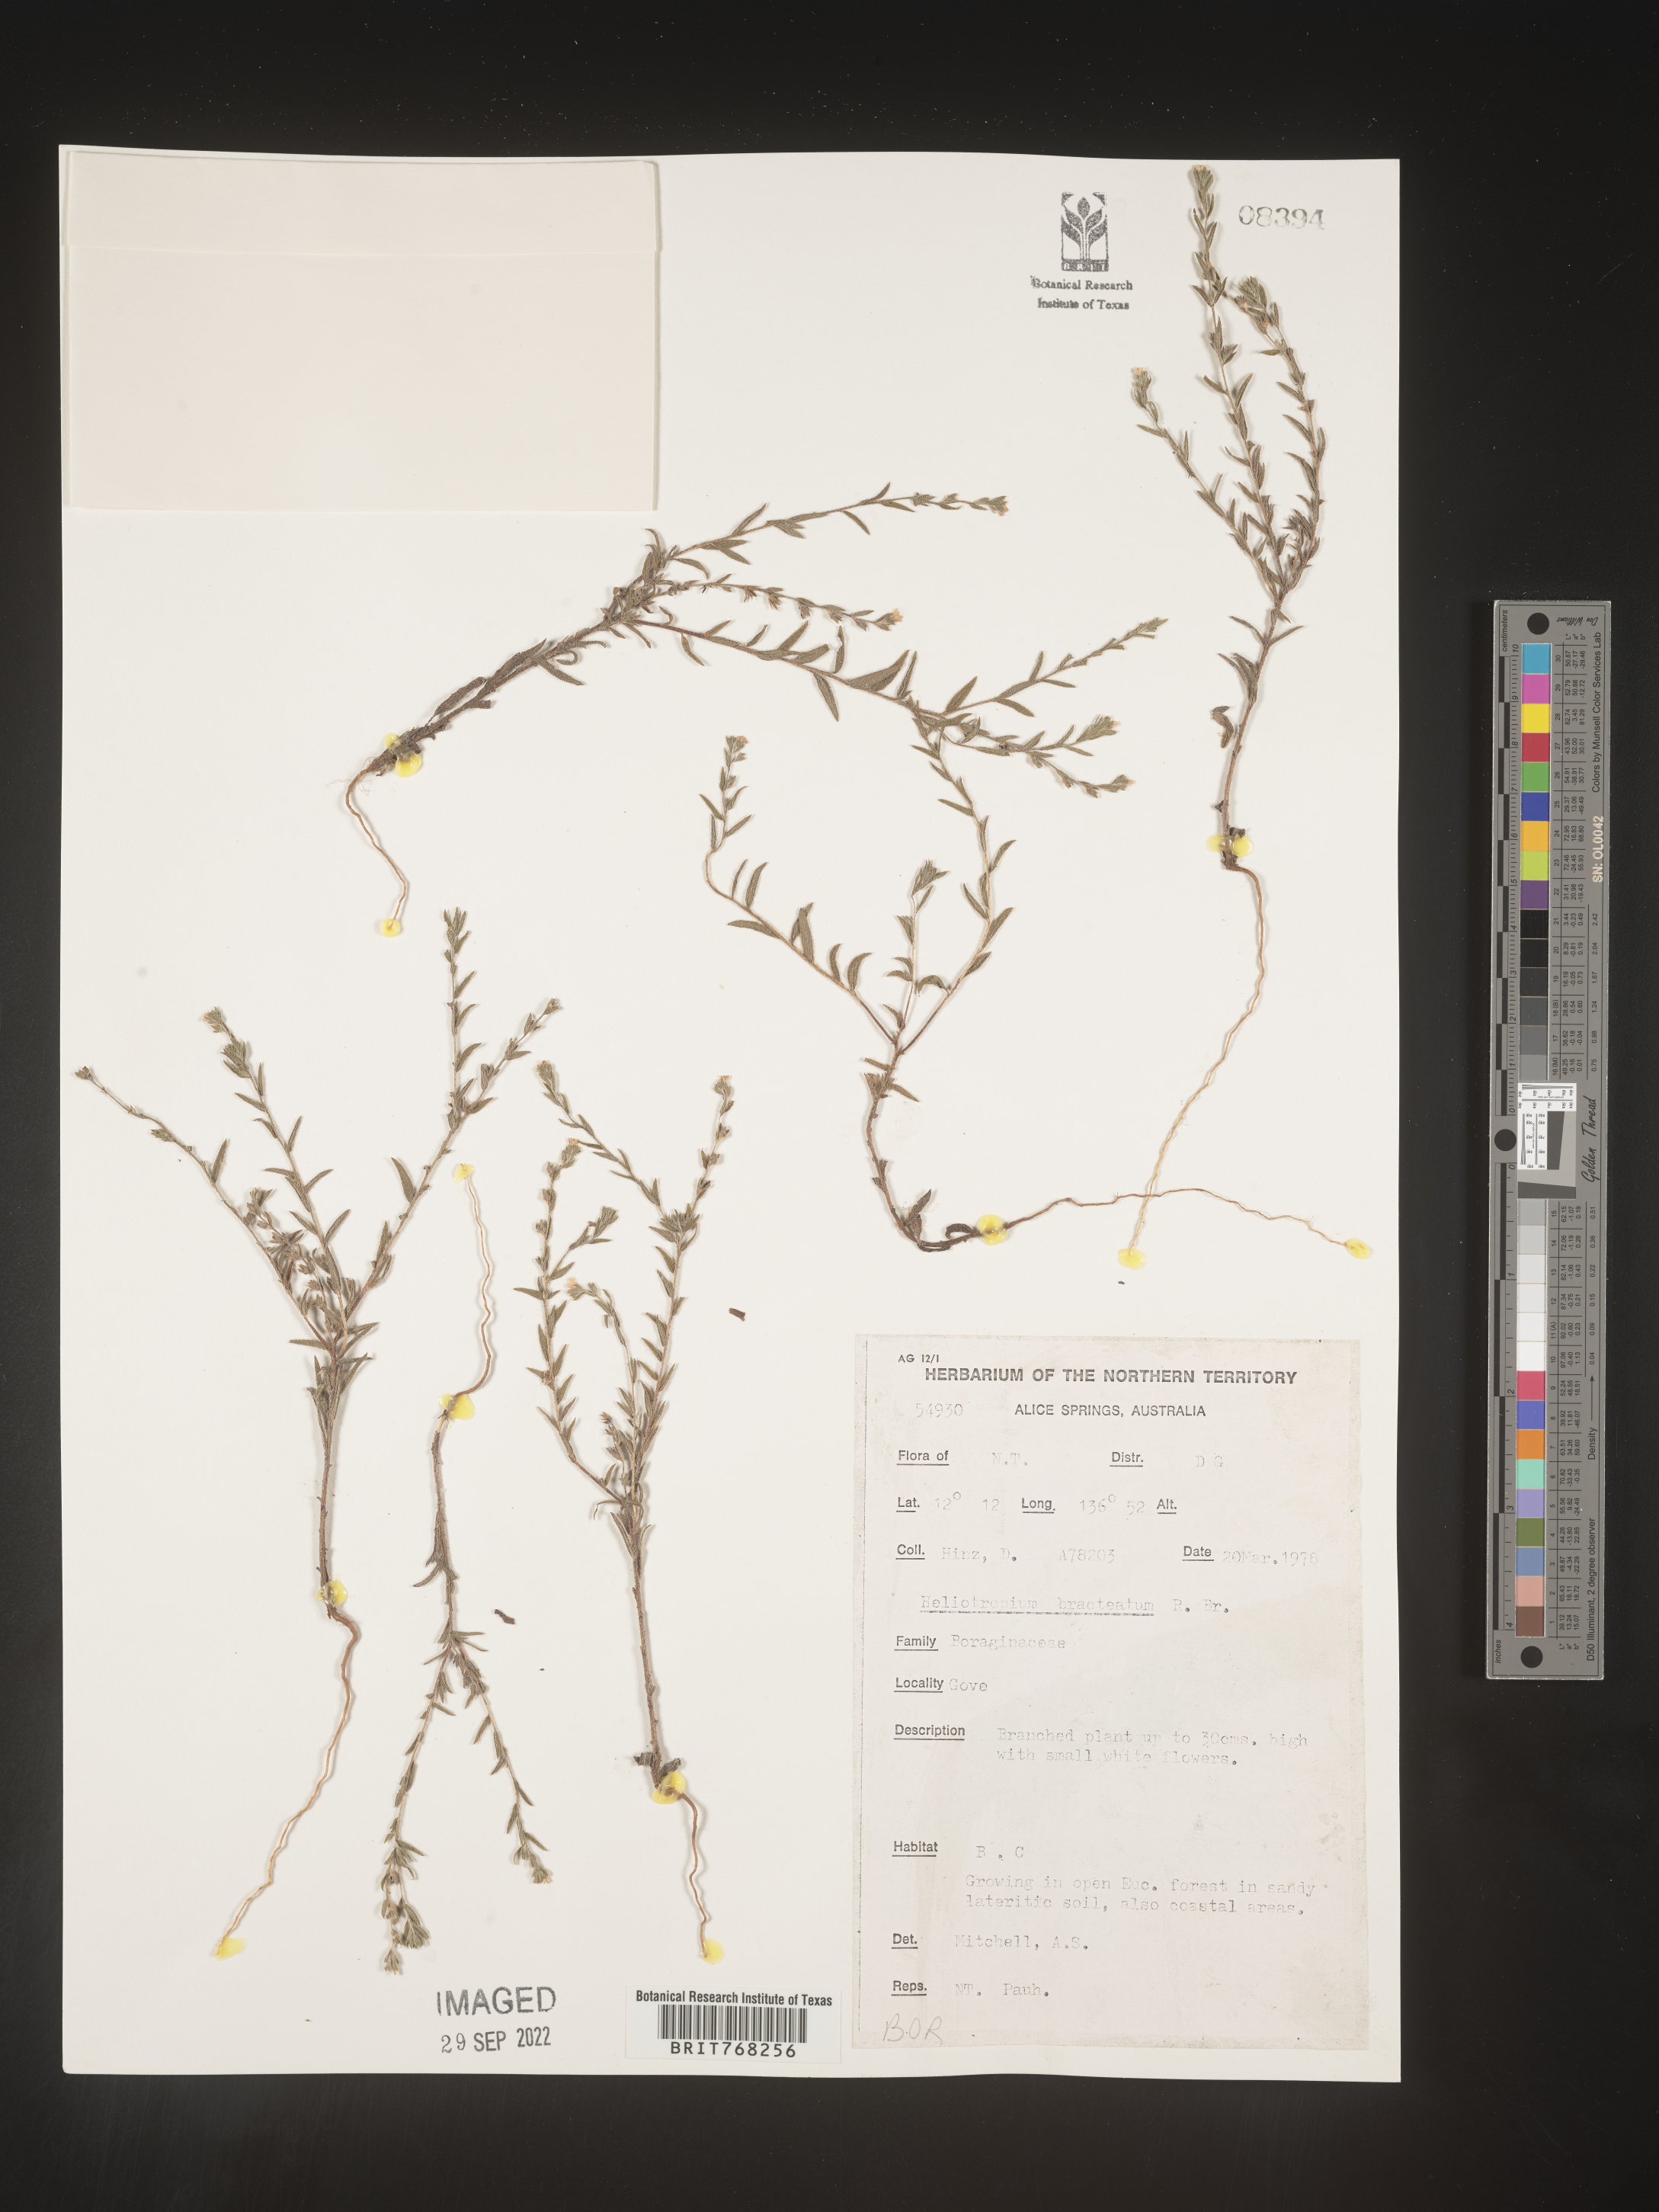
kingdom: Plantae
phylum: Tracheophyta
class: Magnoliopsida
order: Boraginales
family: Heliotropiaceae
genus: Heliotropium
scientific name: Heliotropium
